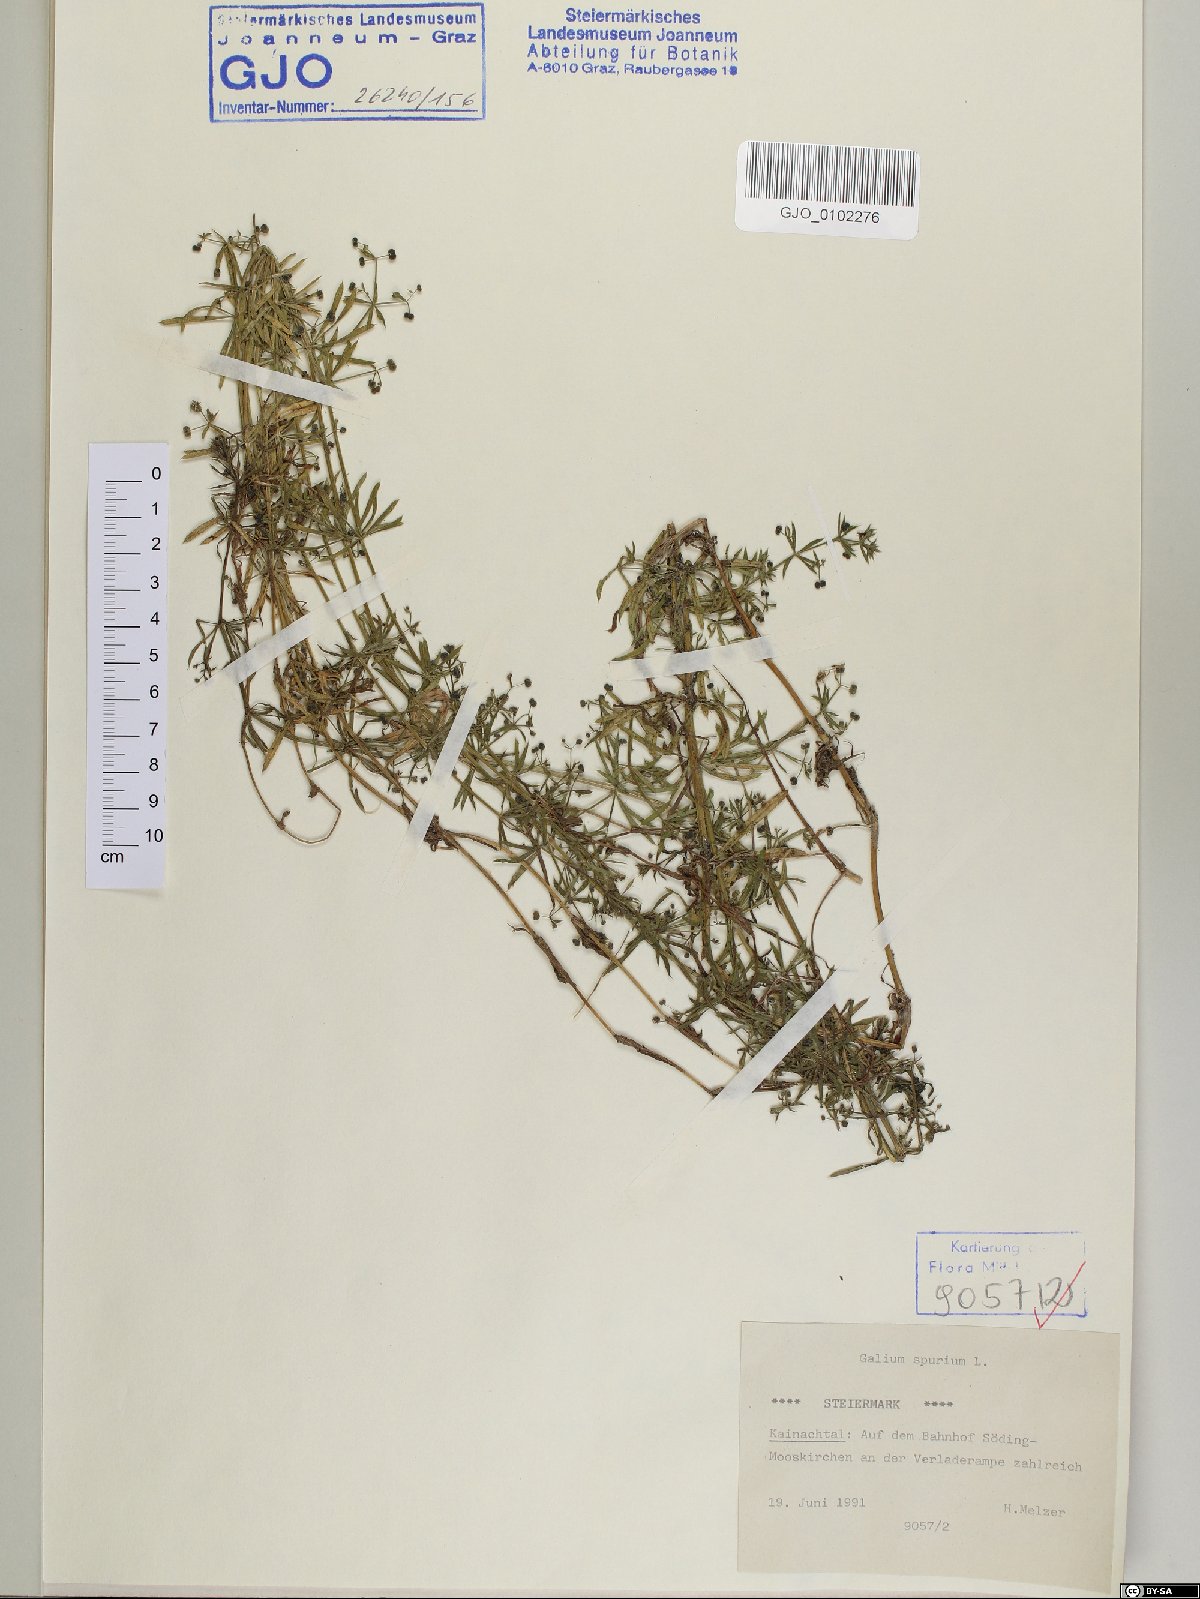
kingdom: Plantae
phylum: Tracheophyta
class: Magnoliopsida
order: Gentianales
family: Rubiaceae
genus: Galium
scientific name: Galium spurium
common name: False cleavers
